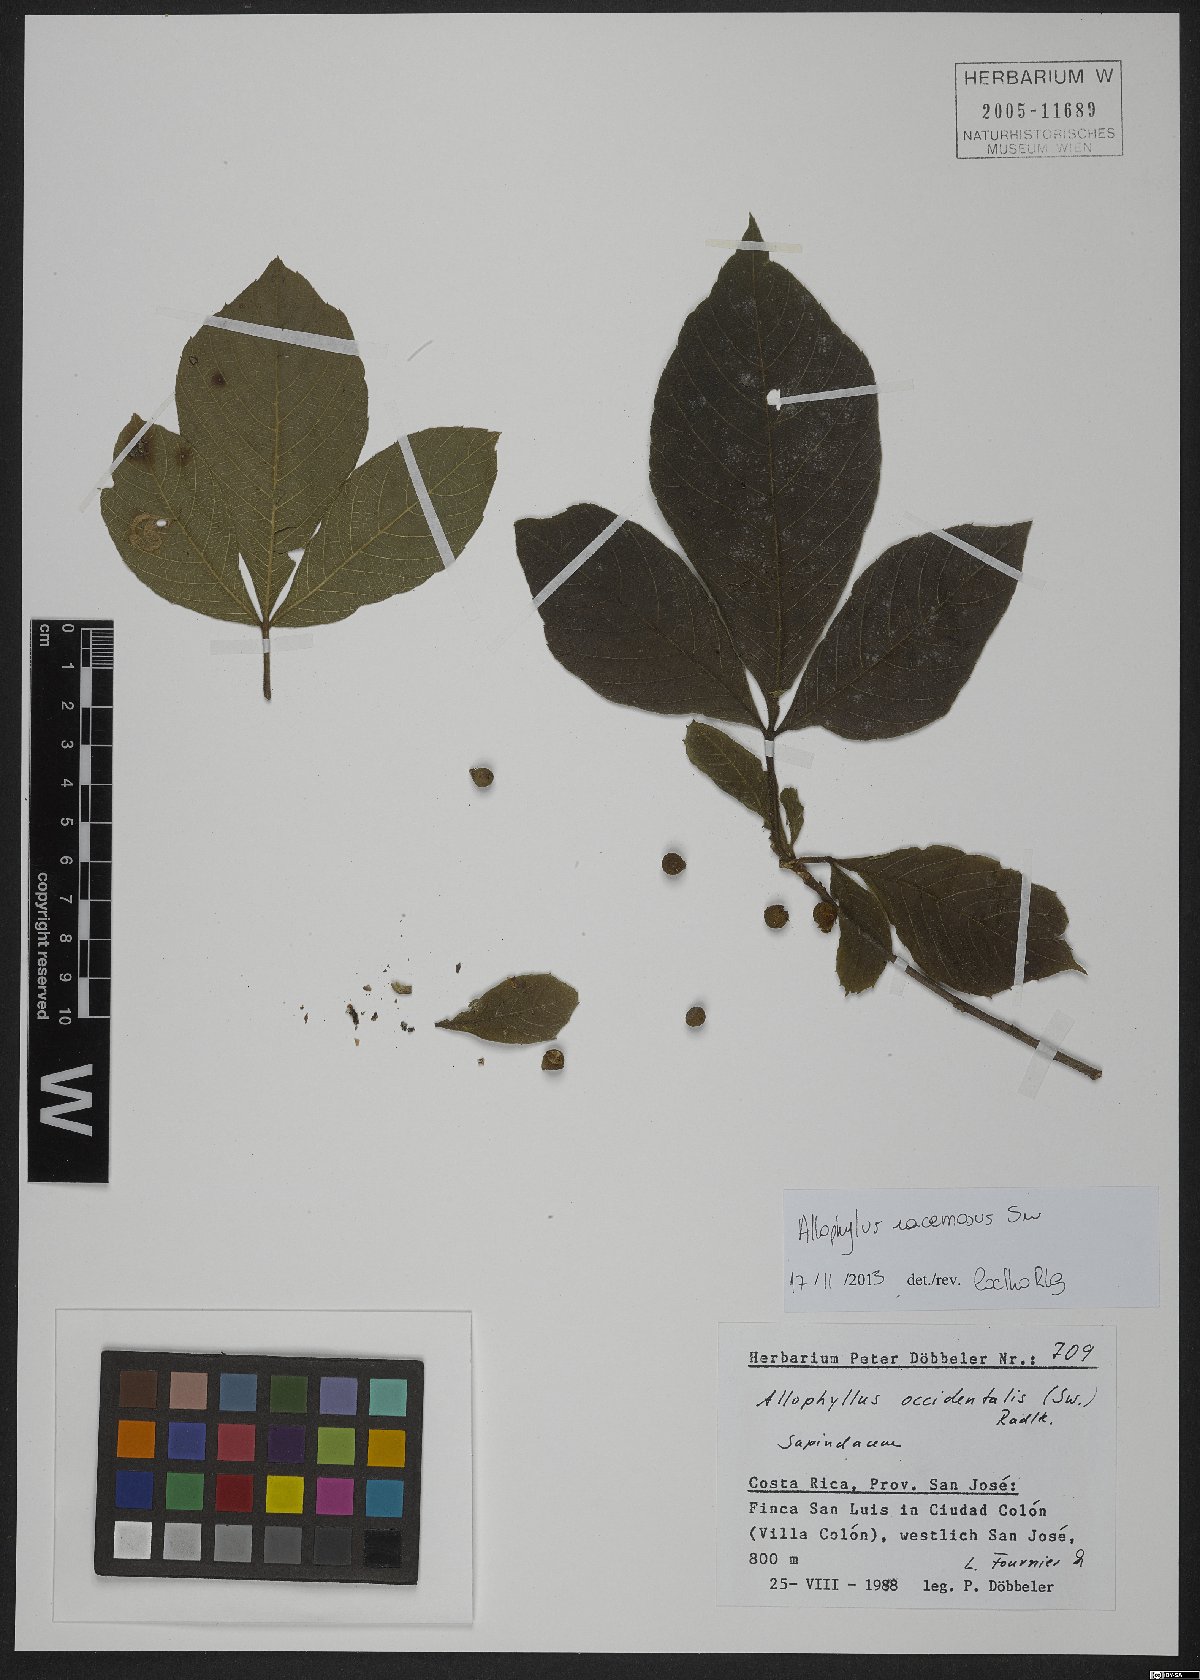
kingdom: Plantae
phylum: Tracheophyta
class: Magnoliopsida
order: Sapindales
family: Sapindaceae
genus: Allophylus
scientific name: Allophylus racemosus
